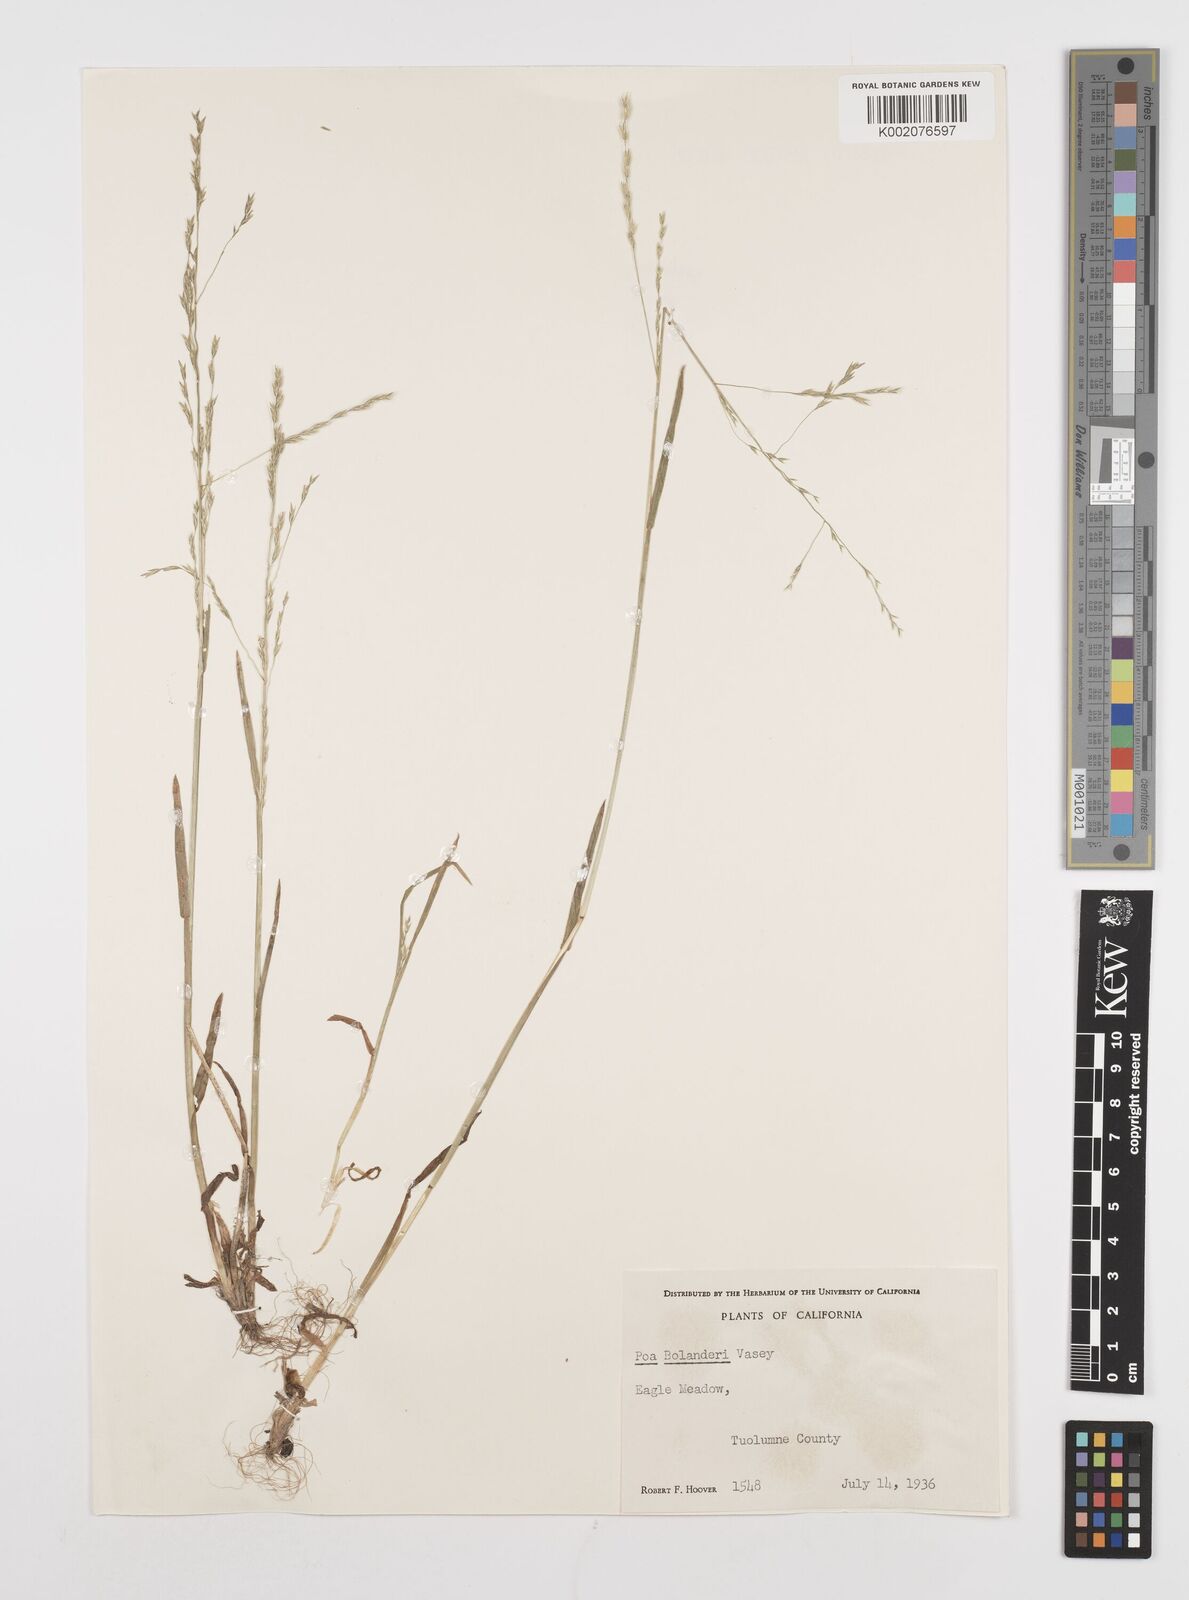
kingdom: Plantae
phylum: Tracheophyta
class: Liliopsida
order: Poales
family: Poaceae
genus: Poa
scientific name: Poa bolanderi
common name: Bolander's bluegrass
